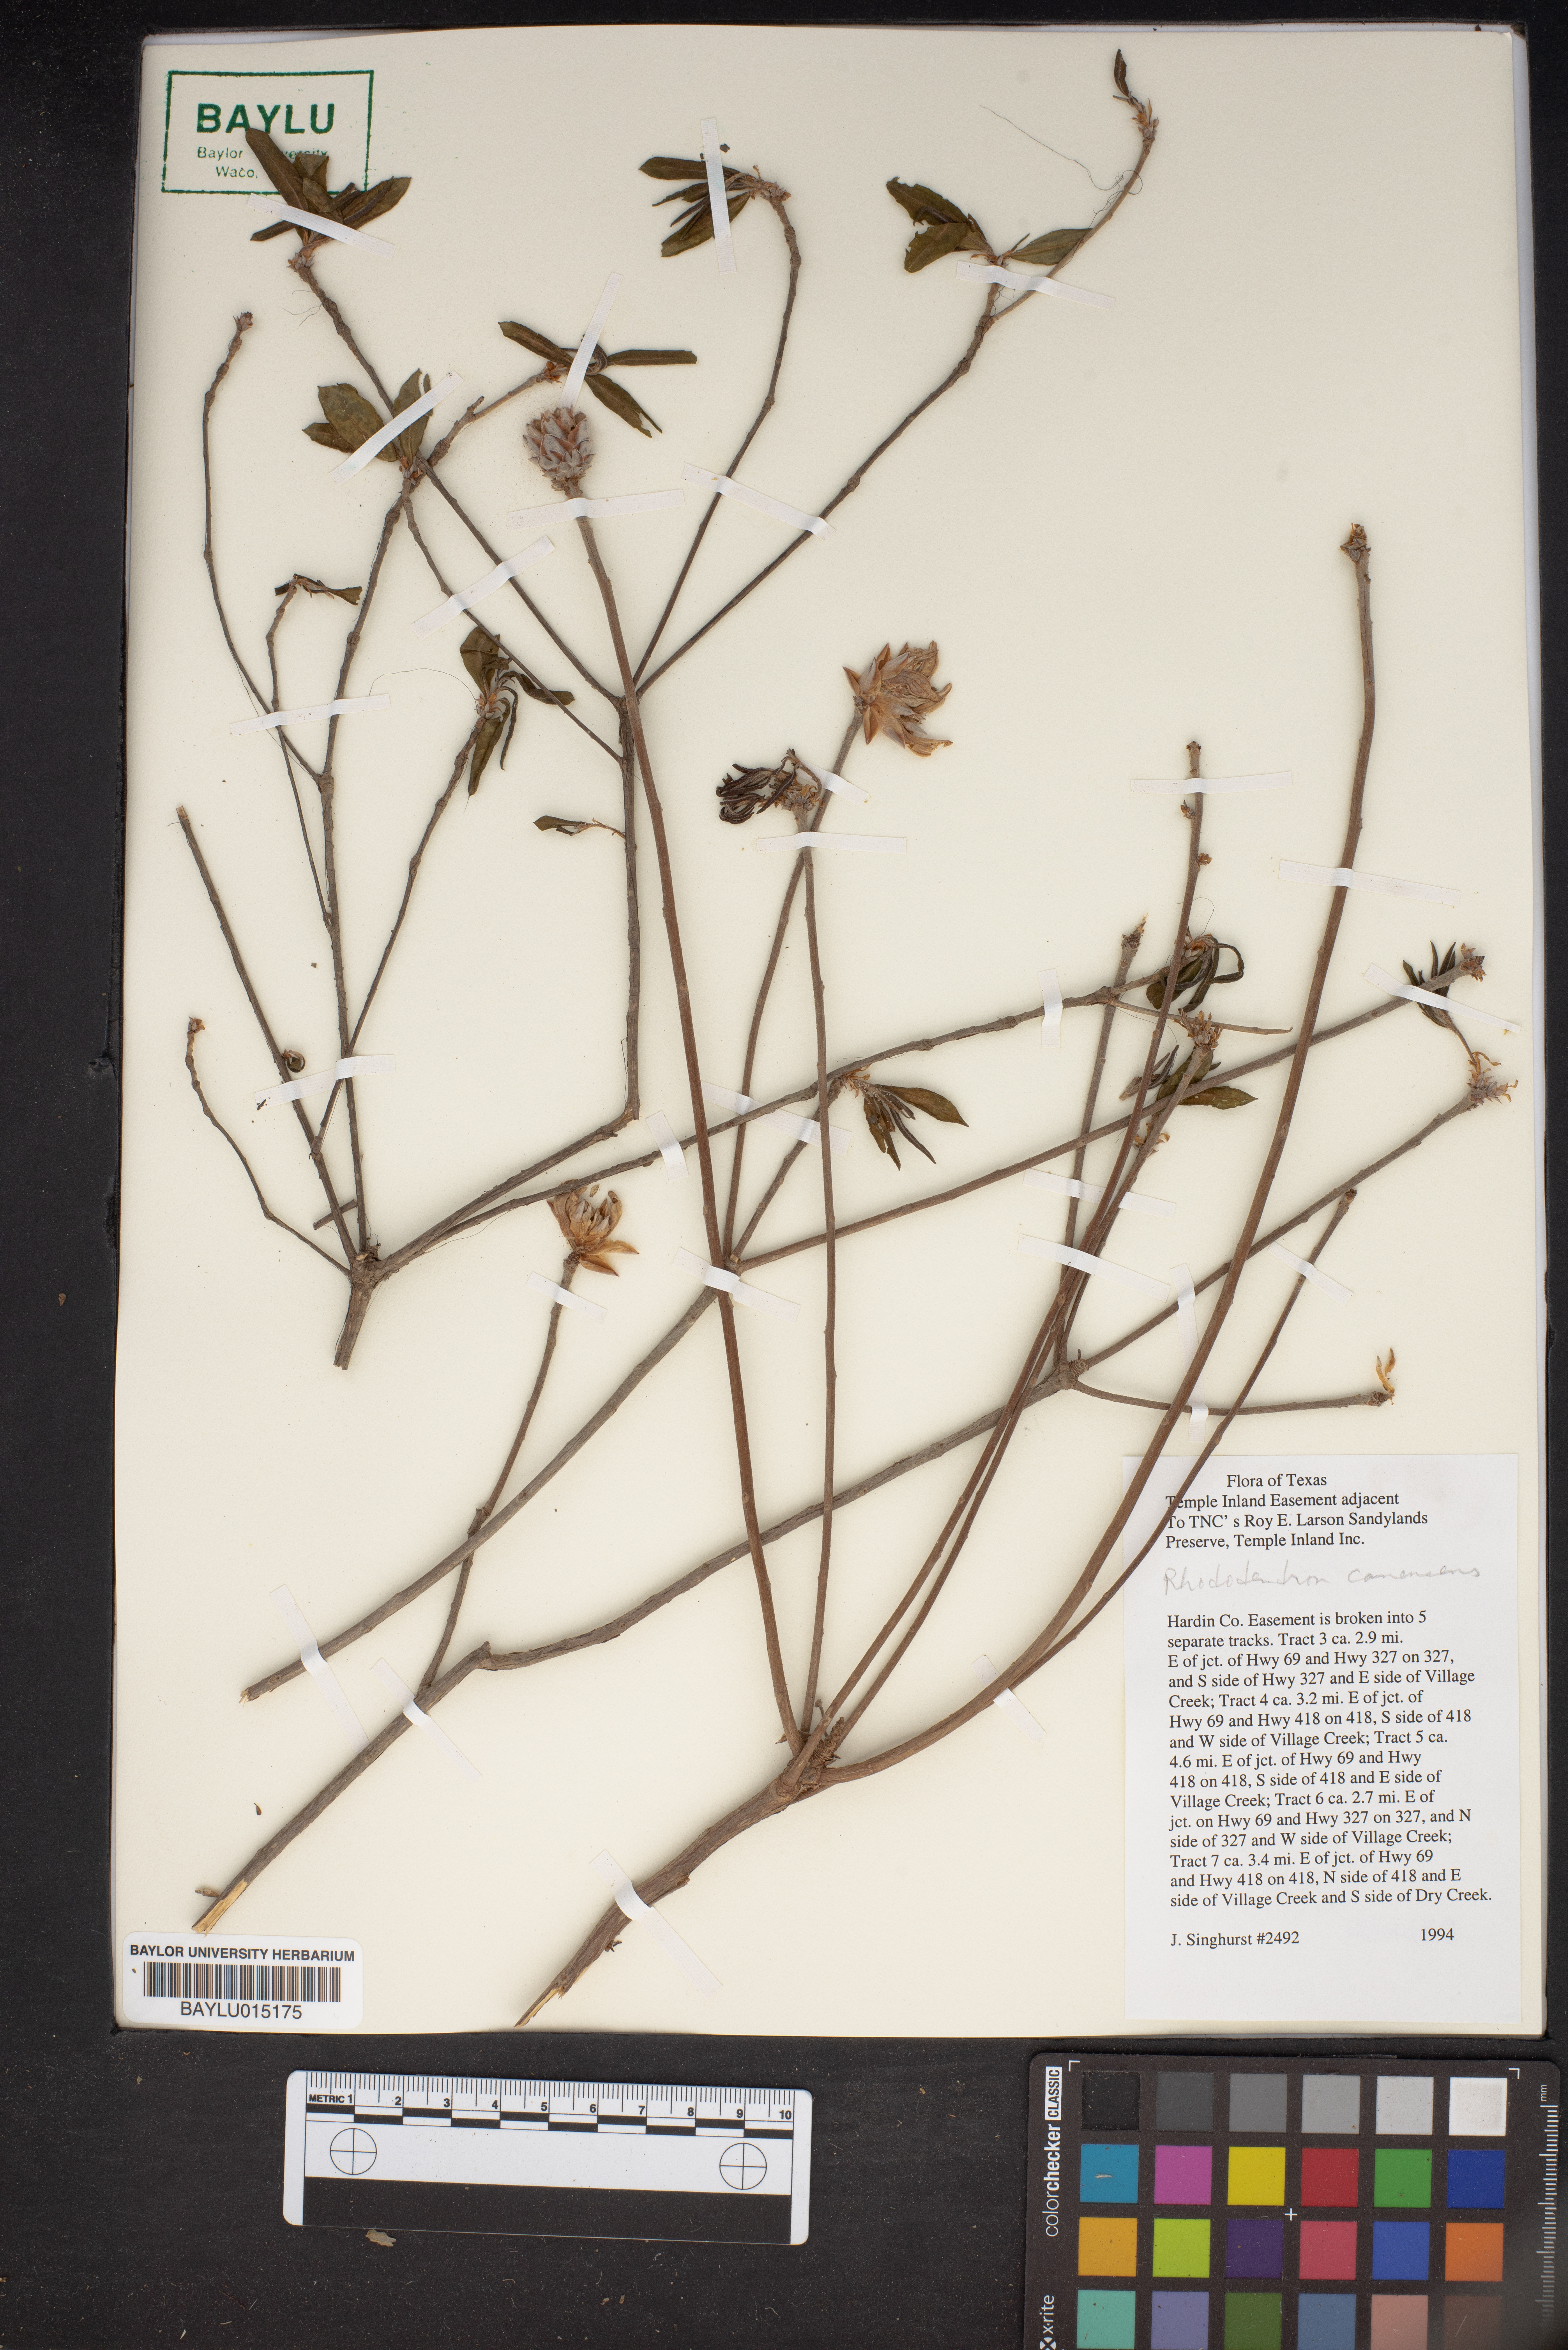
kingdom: Plantae
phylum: Tracheophyta
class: Magnoliopsida
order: Ericales
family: Ericaceae
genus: Rhododendron
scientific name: Rhododendron canescens
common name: Mountain azalea
